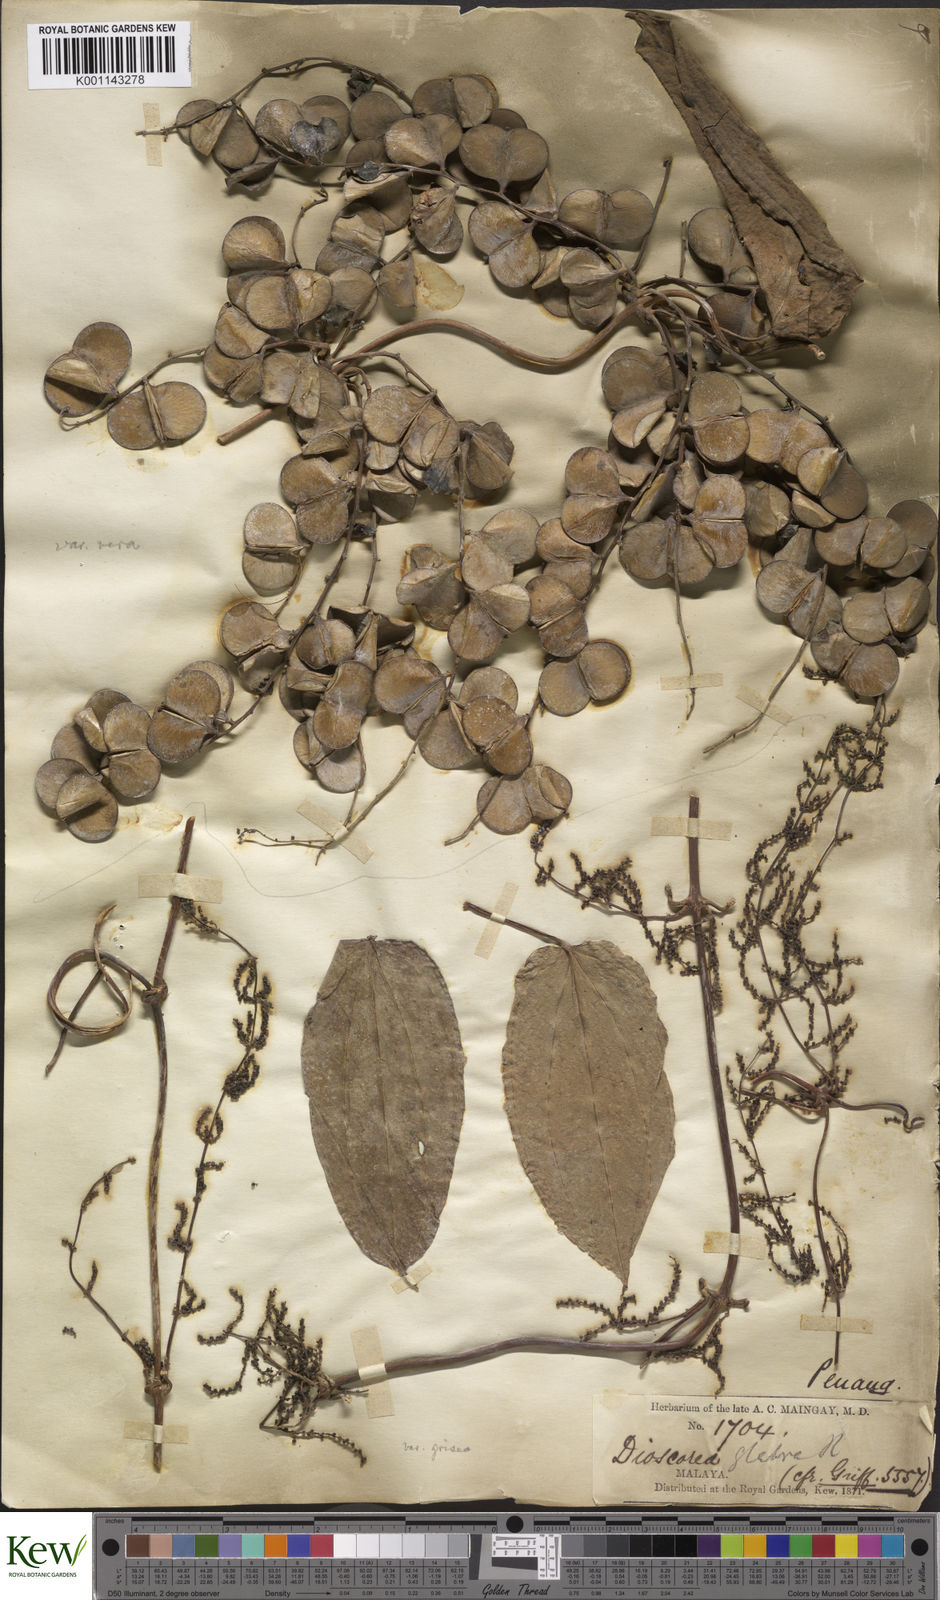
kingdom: Plantae
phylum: Tracheophyta
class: Liliopsida
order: Dioscoreales
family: Dioscoreaceae
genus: Dioscorea
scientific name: Dioscorea glabra
